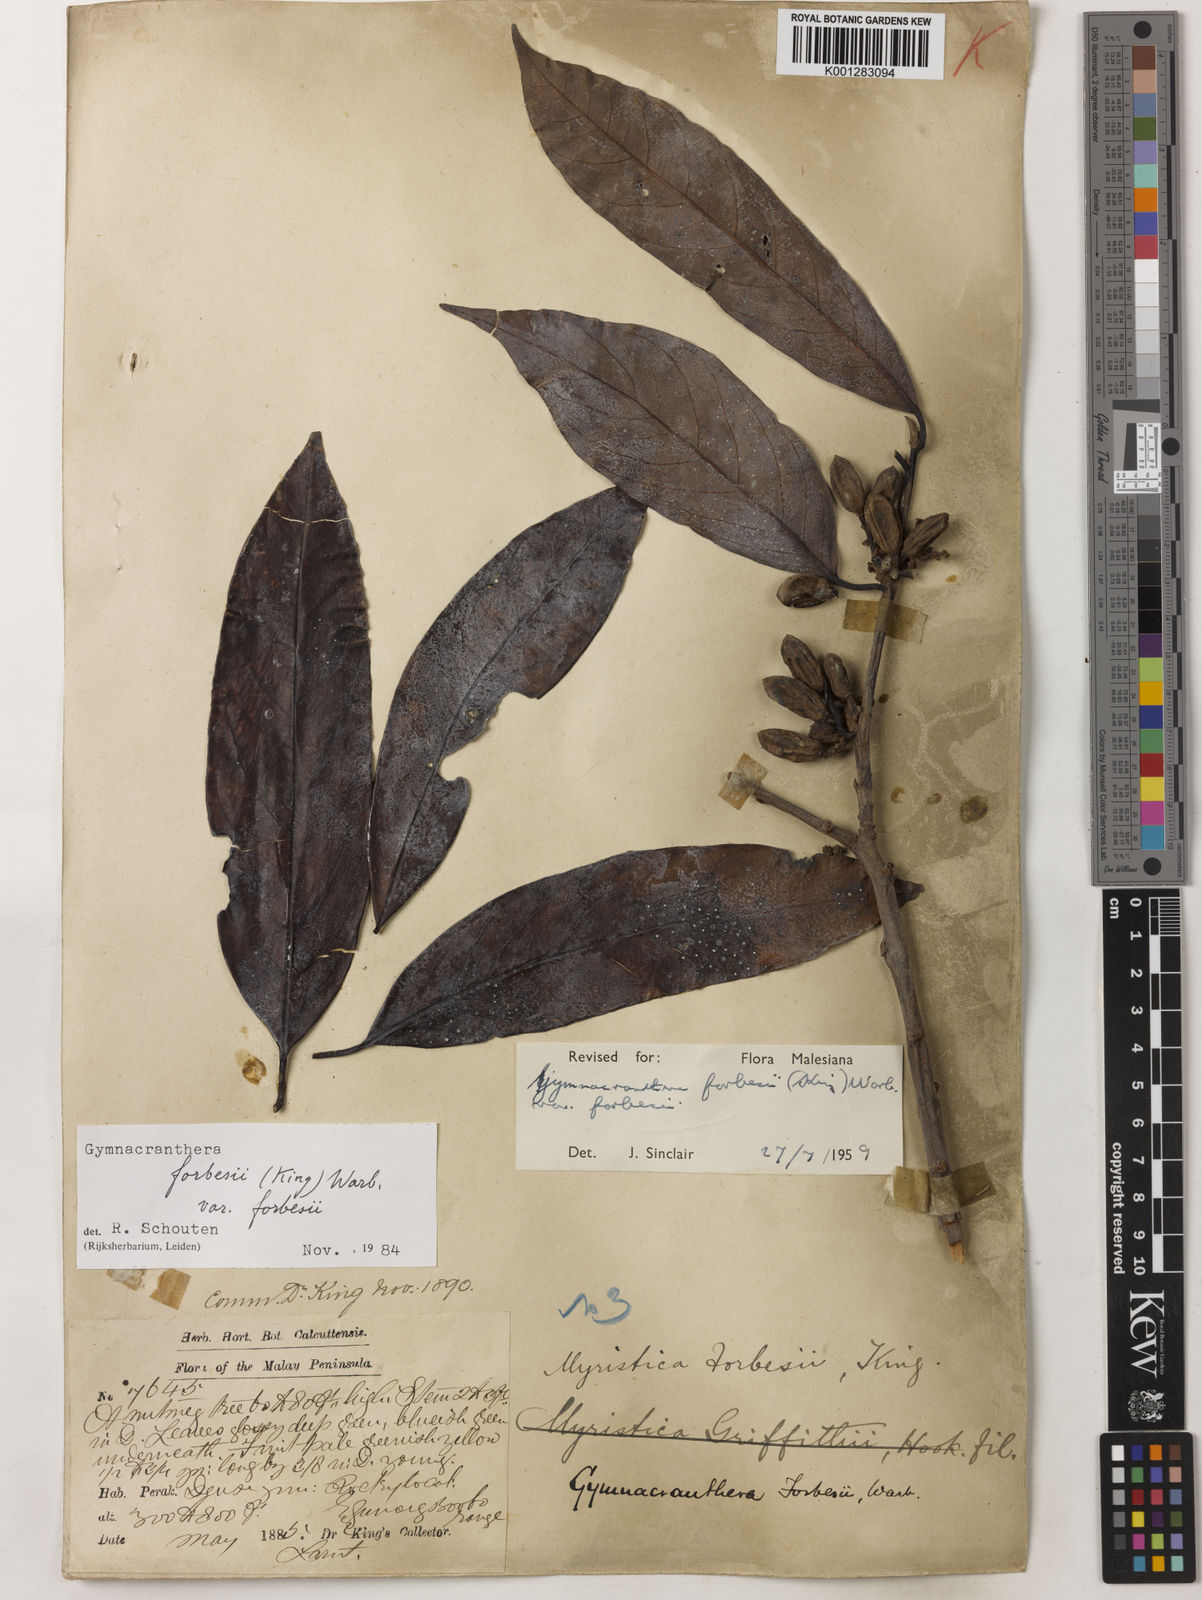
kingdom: Plantae
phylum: Tracheophyta
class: Magnoliopsida
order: Magnoliales
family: Myristicaceae
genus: Gymnacranthera
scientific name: Gymnacranthera forbesii
